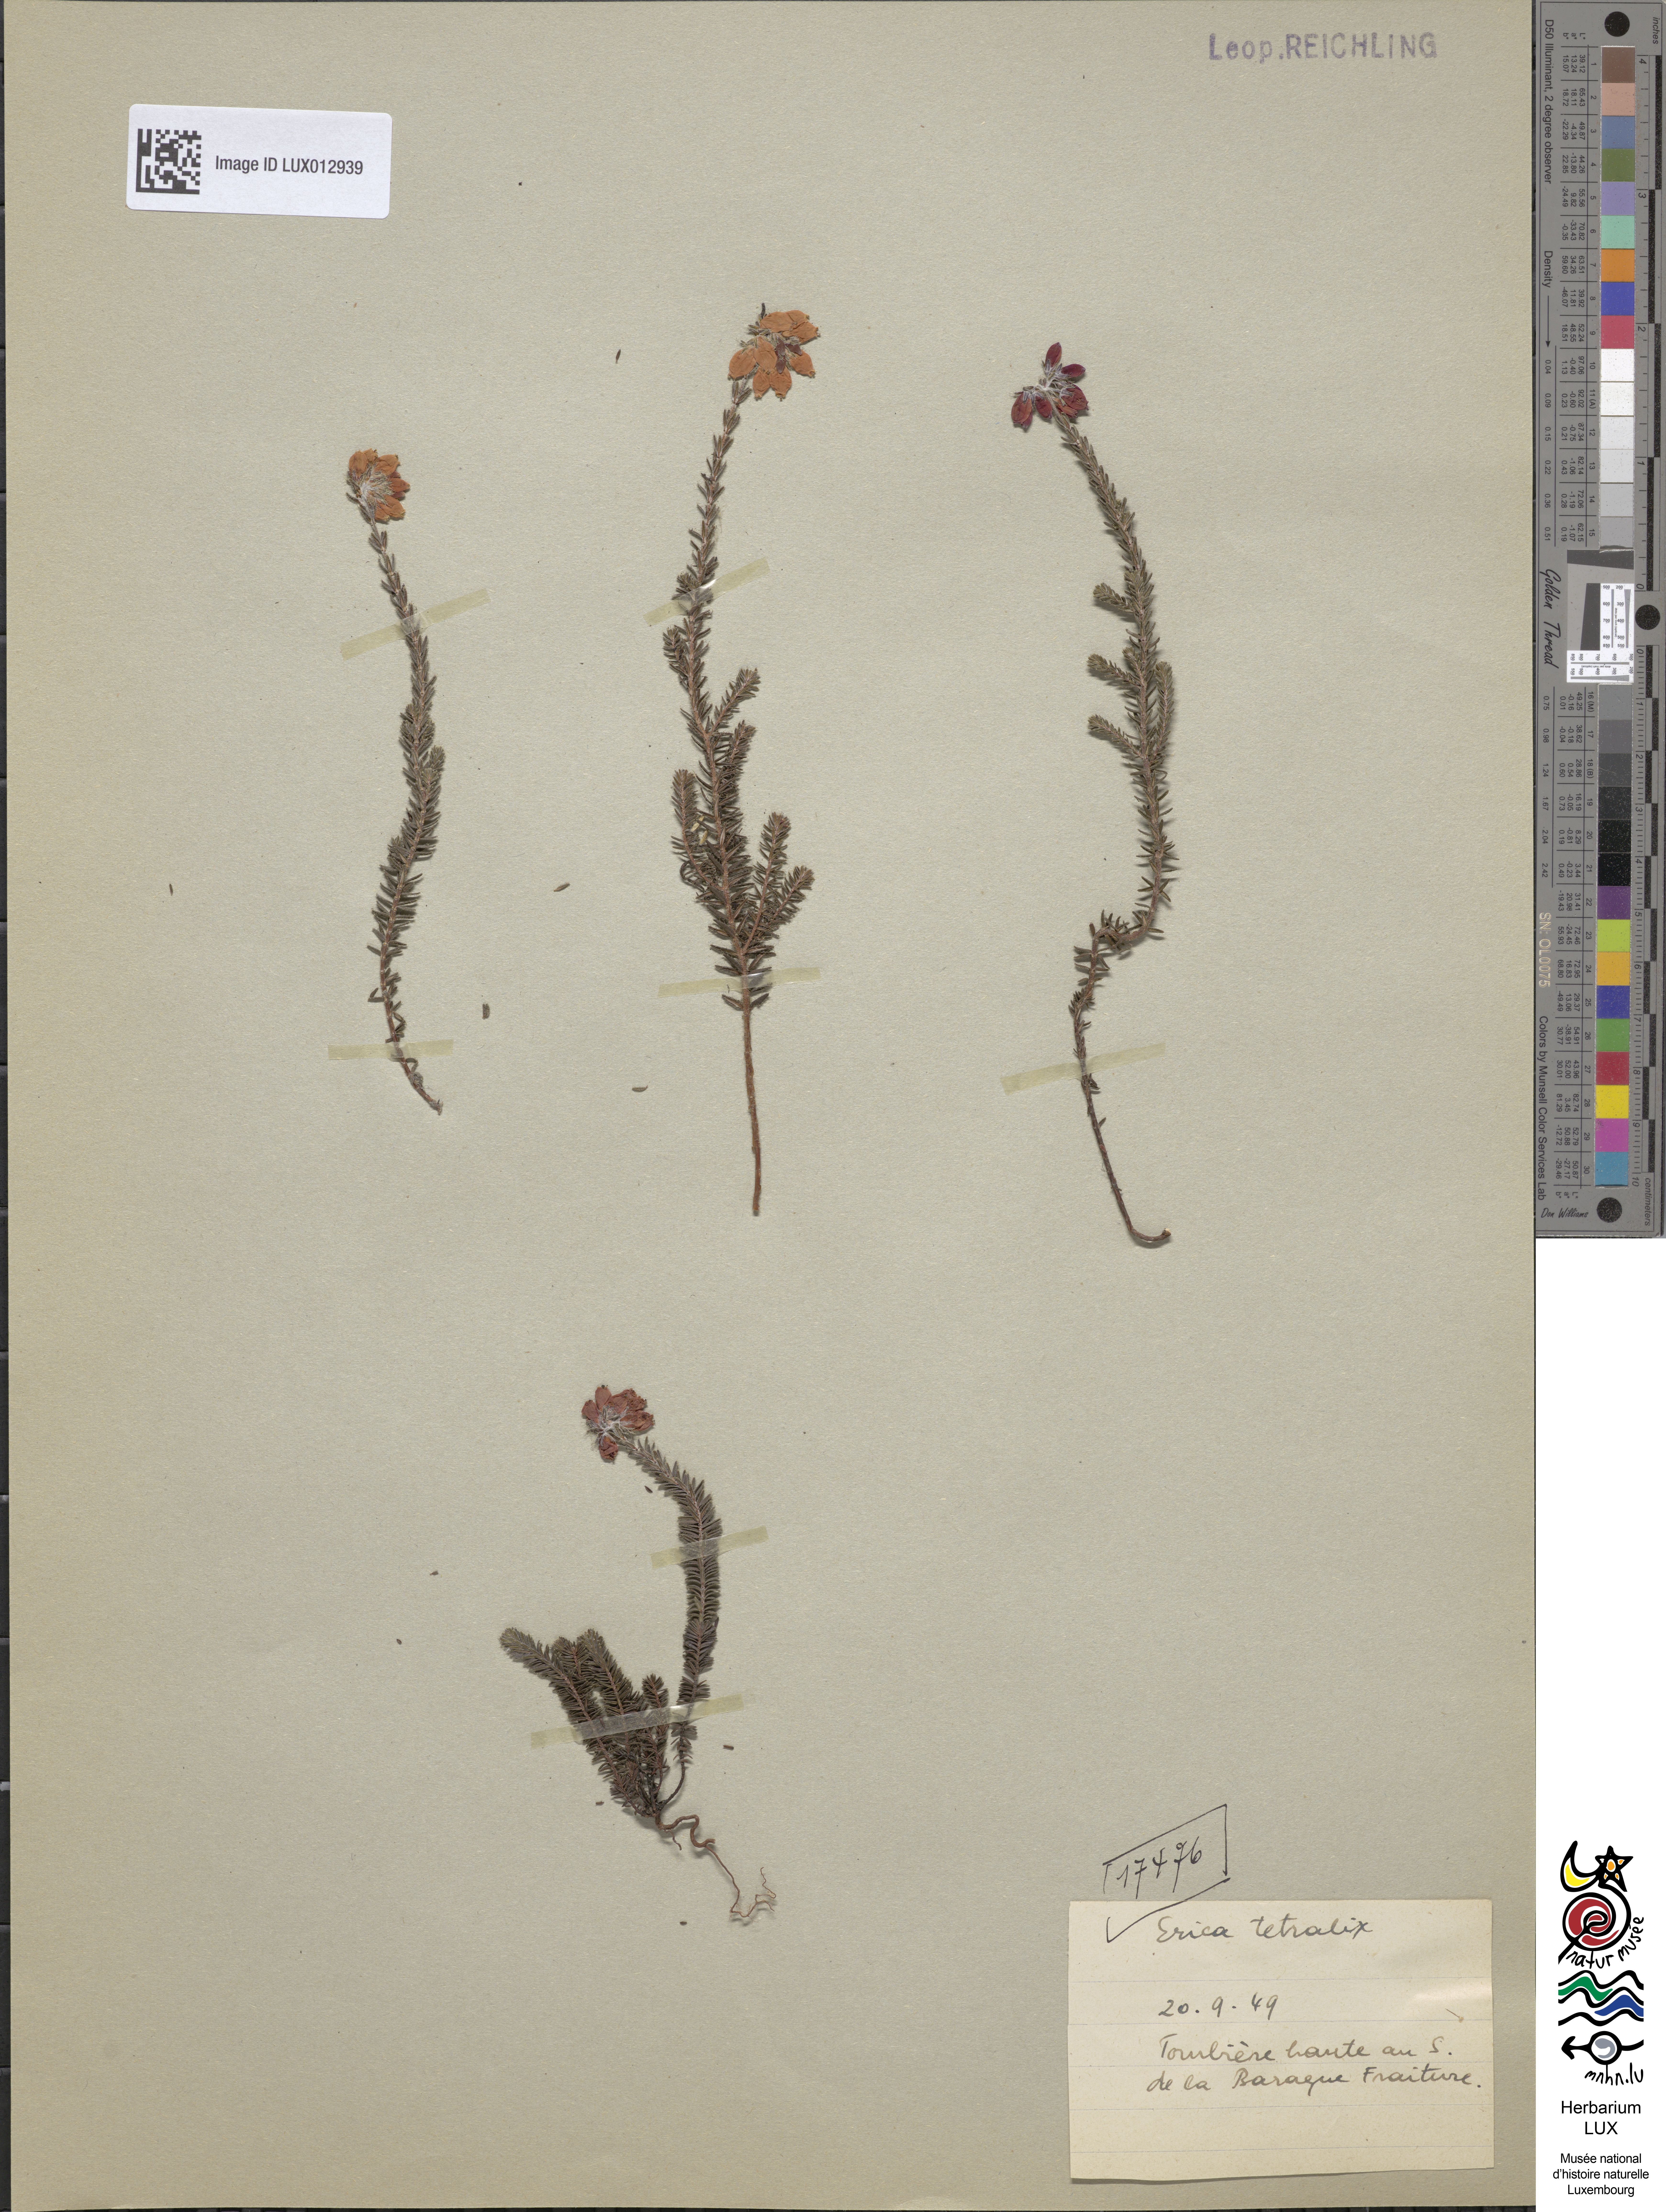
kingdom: Plantae
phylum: Tracheophyta
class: Magnoliopsida
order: Ericales
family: Ericaceae
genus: Erica
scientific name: Erica tetralix
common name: Cross-leaved heath
